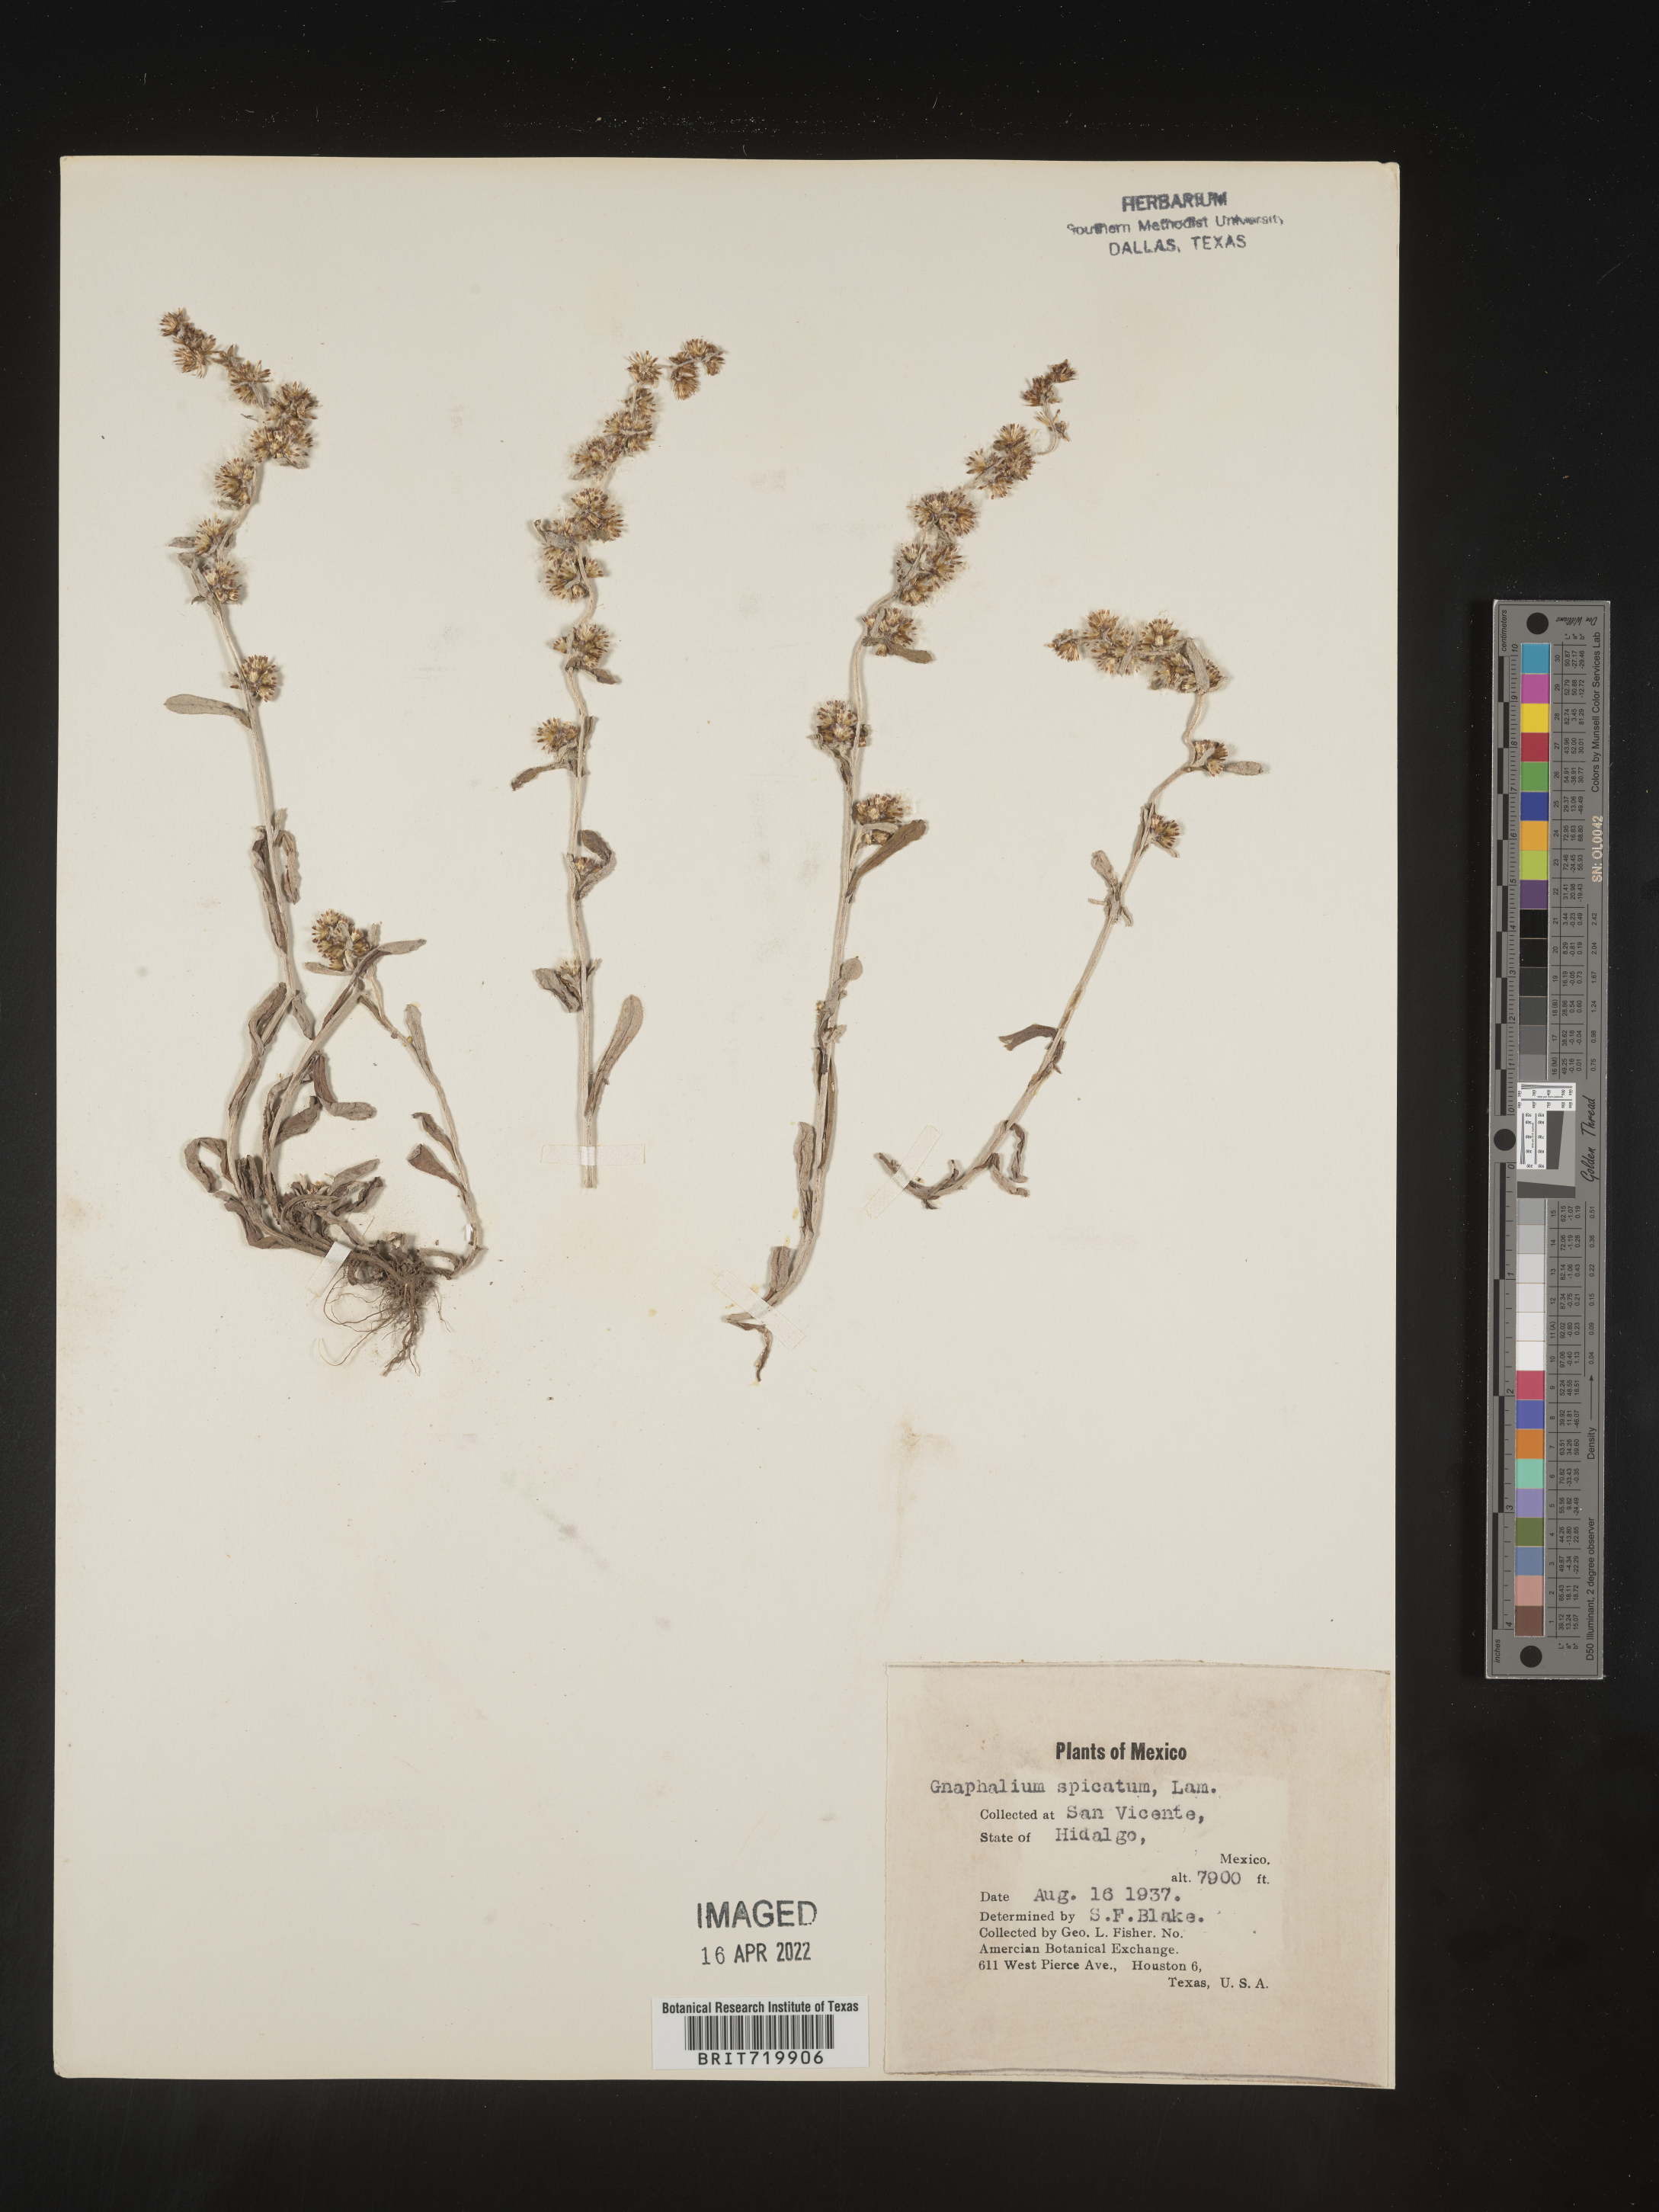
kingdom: Plantae
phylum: Tracheophyta
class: Magnoliopsida
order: Asterales
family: Asteraceae
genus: Gamochaeta
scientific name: Gamochaeta
